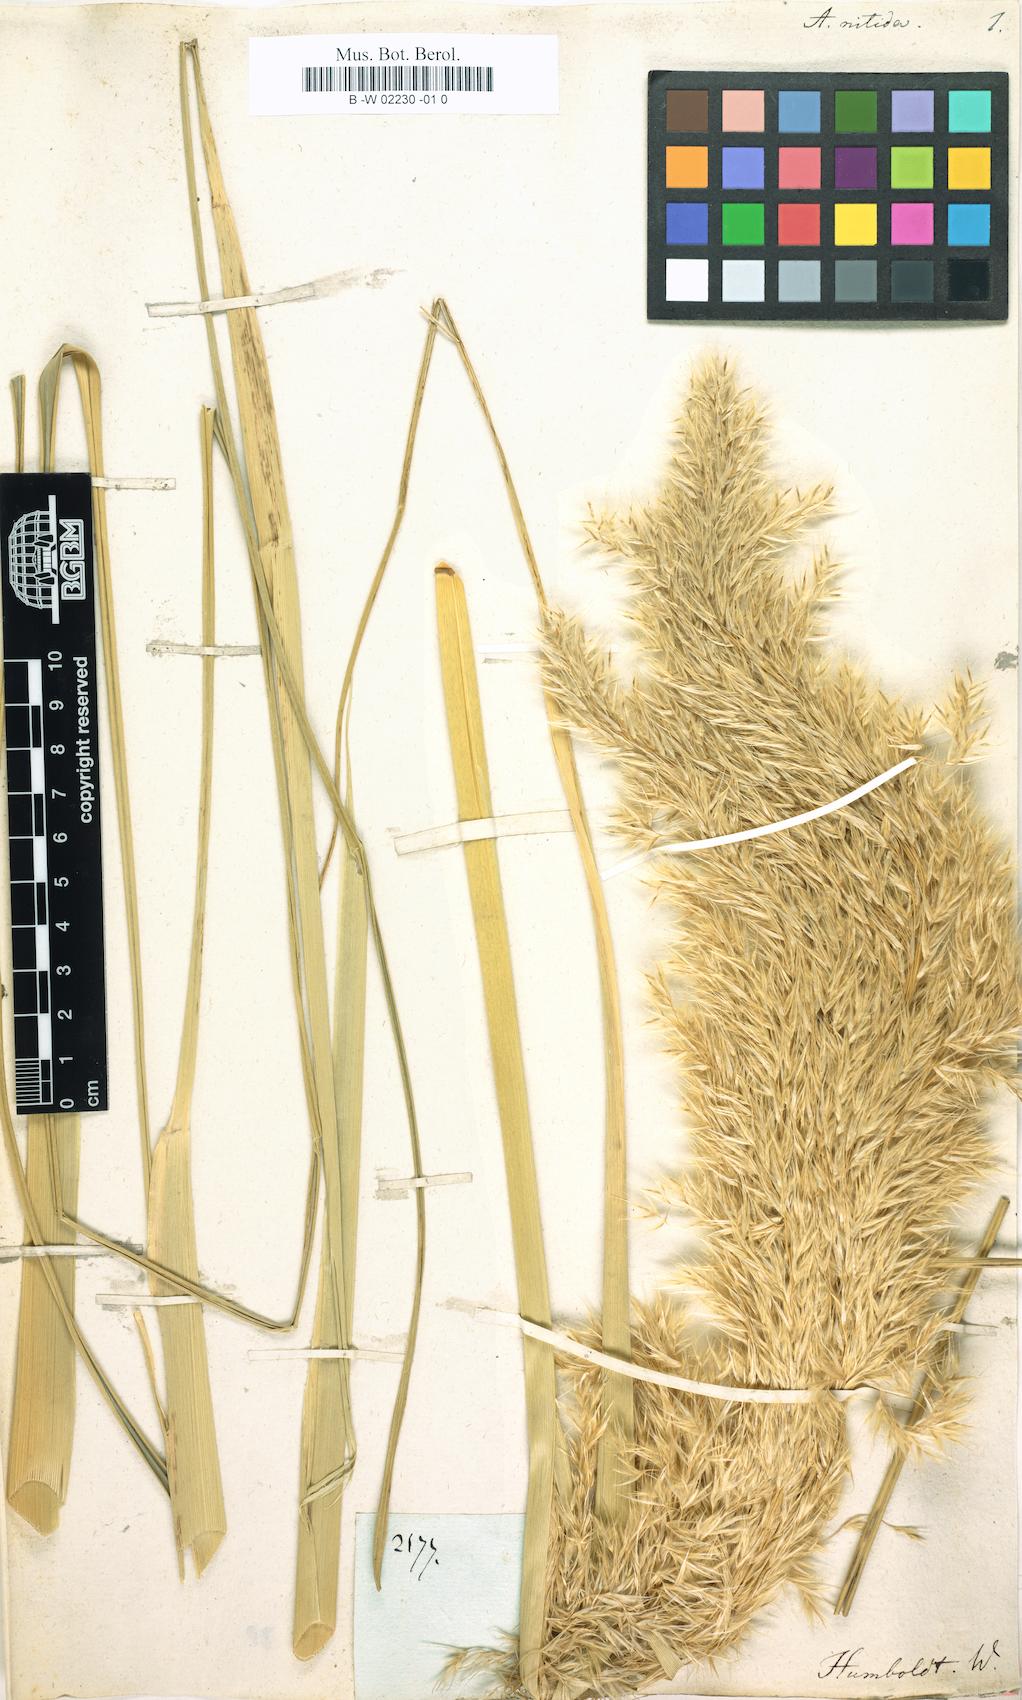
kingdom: Plantae
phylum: Tracheophyta
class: Liliopsida
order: Poales
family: Poaceae
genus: Cortaderia
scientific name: Cortaderia nitida
